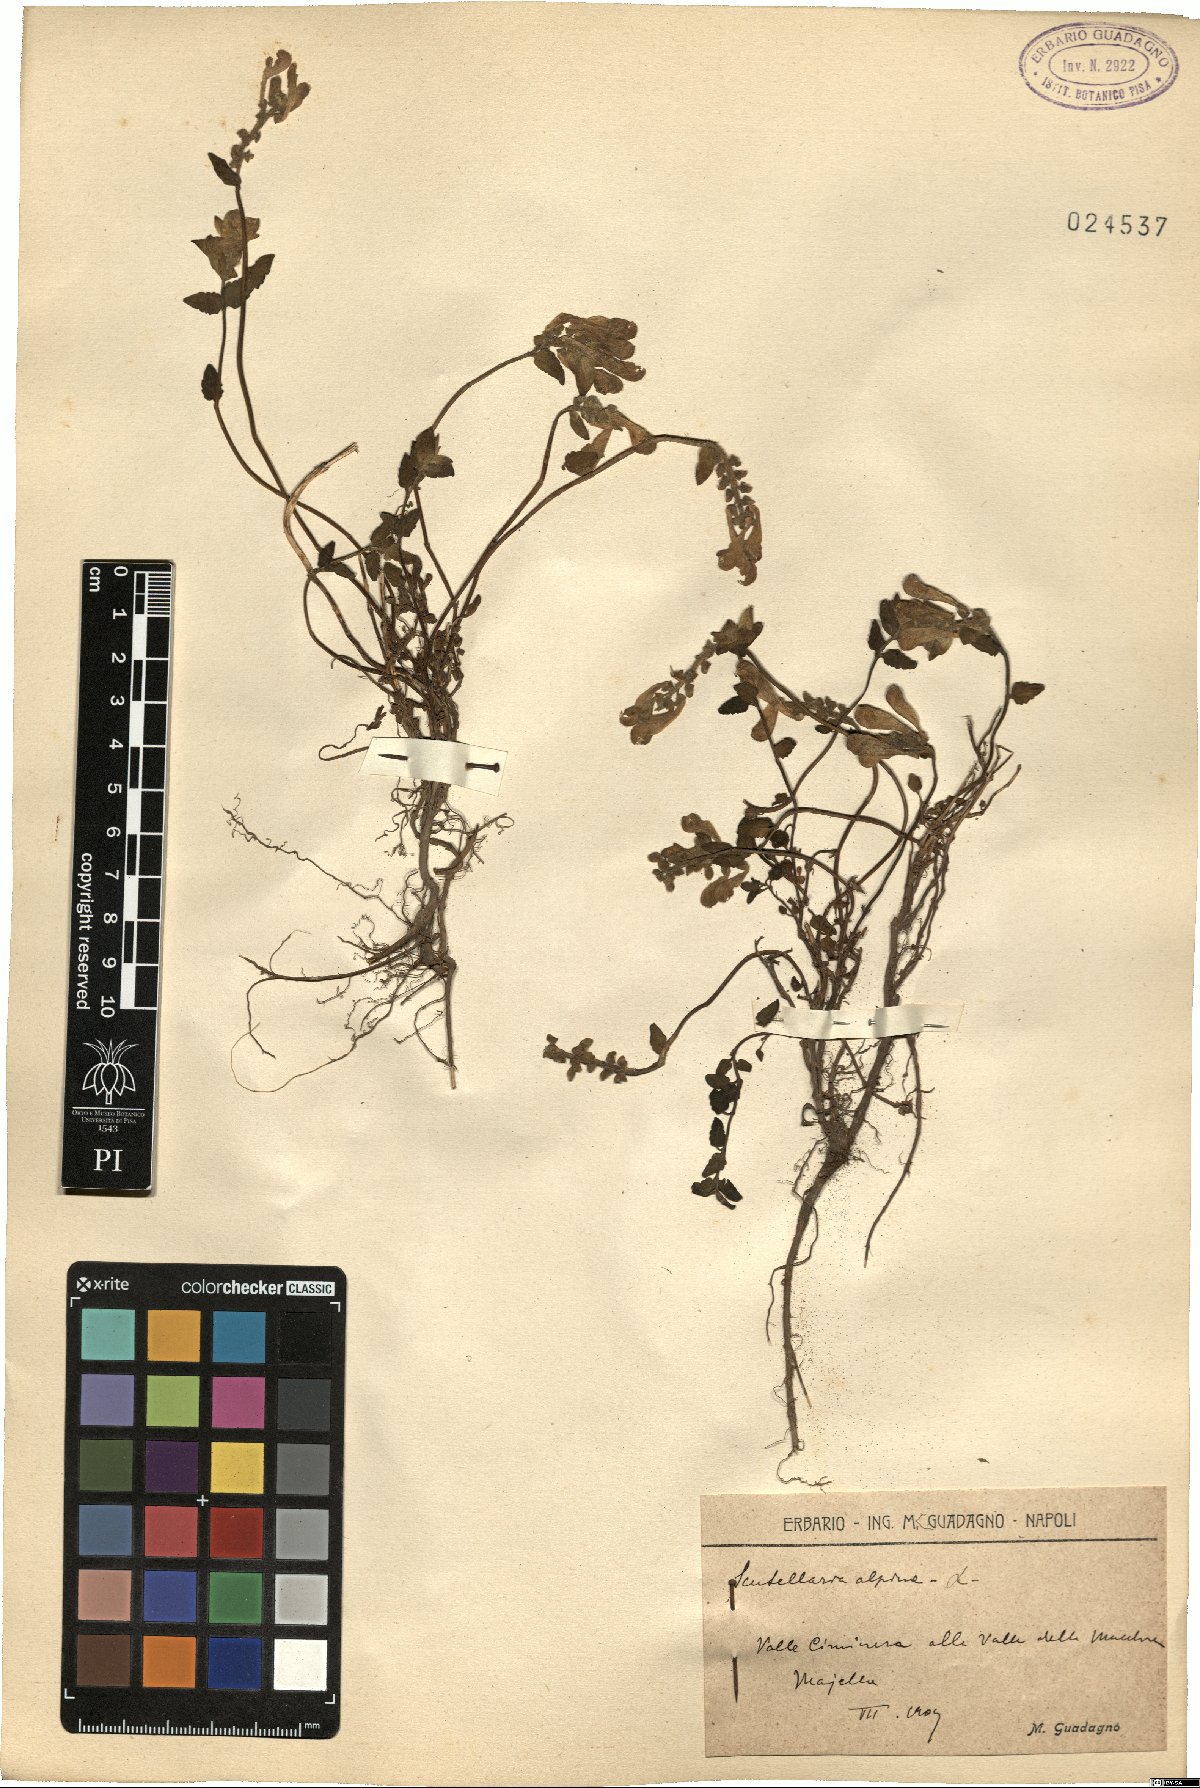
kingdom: Plantae
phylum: Tracheophyta
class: Magnoliopsida
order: Lamiales
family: Lamiaceae
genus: Scutellaria
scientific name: Scutellaria alpina
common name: Alpine scullcap
